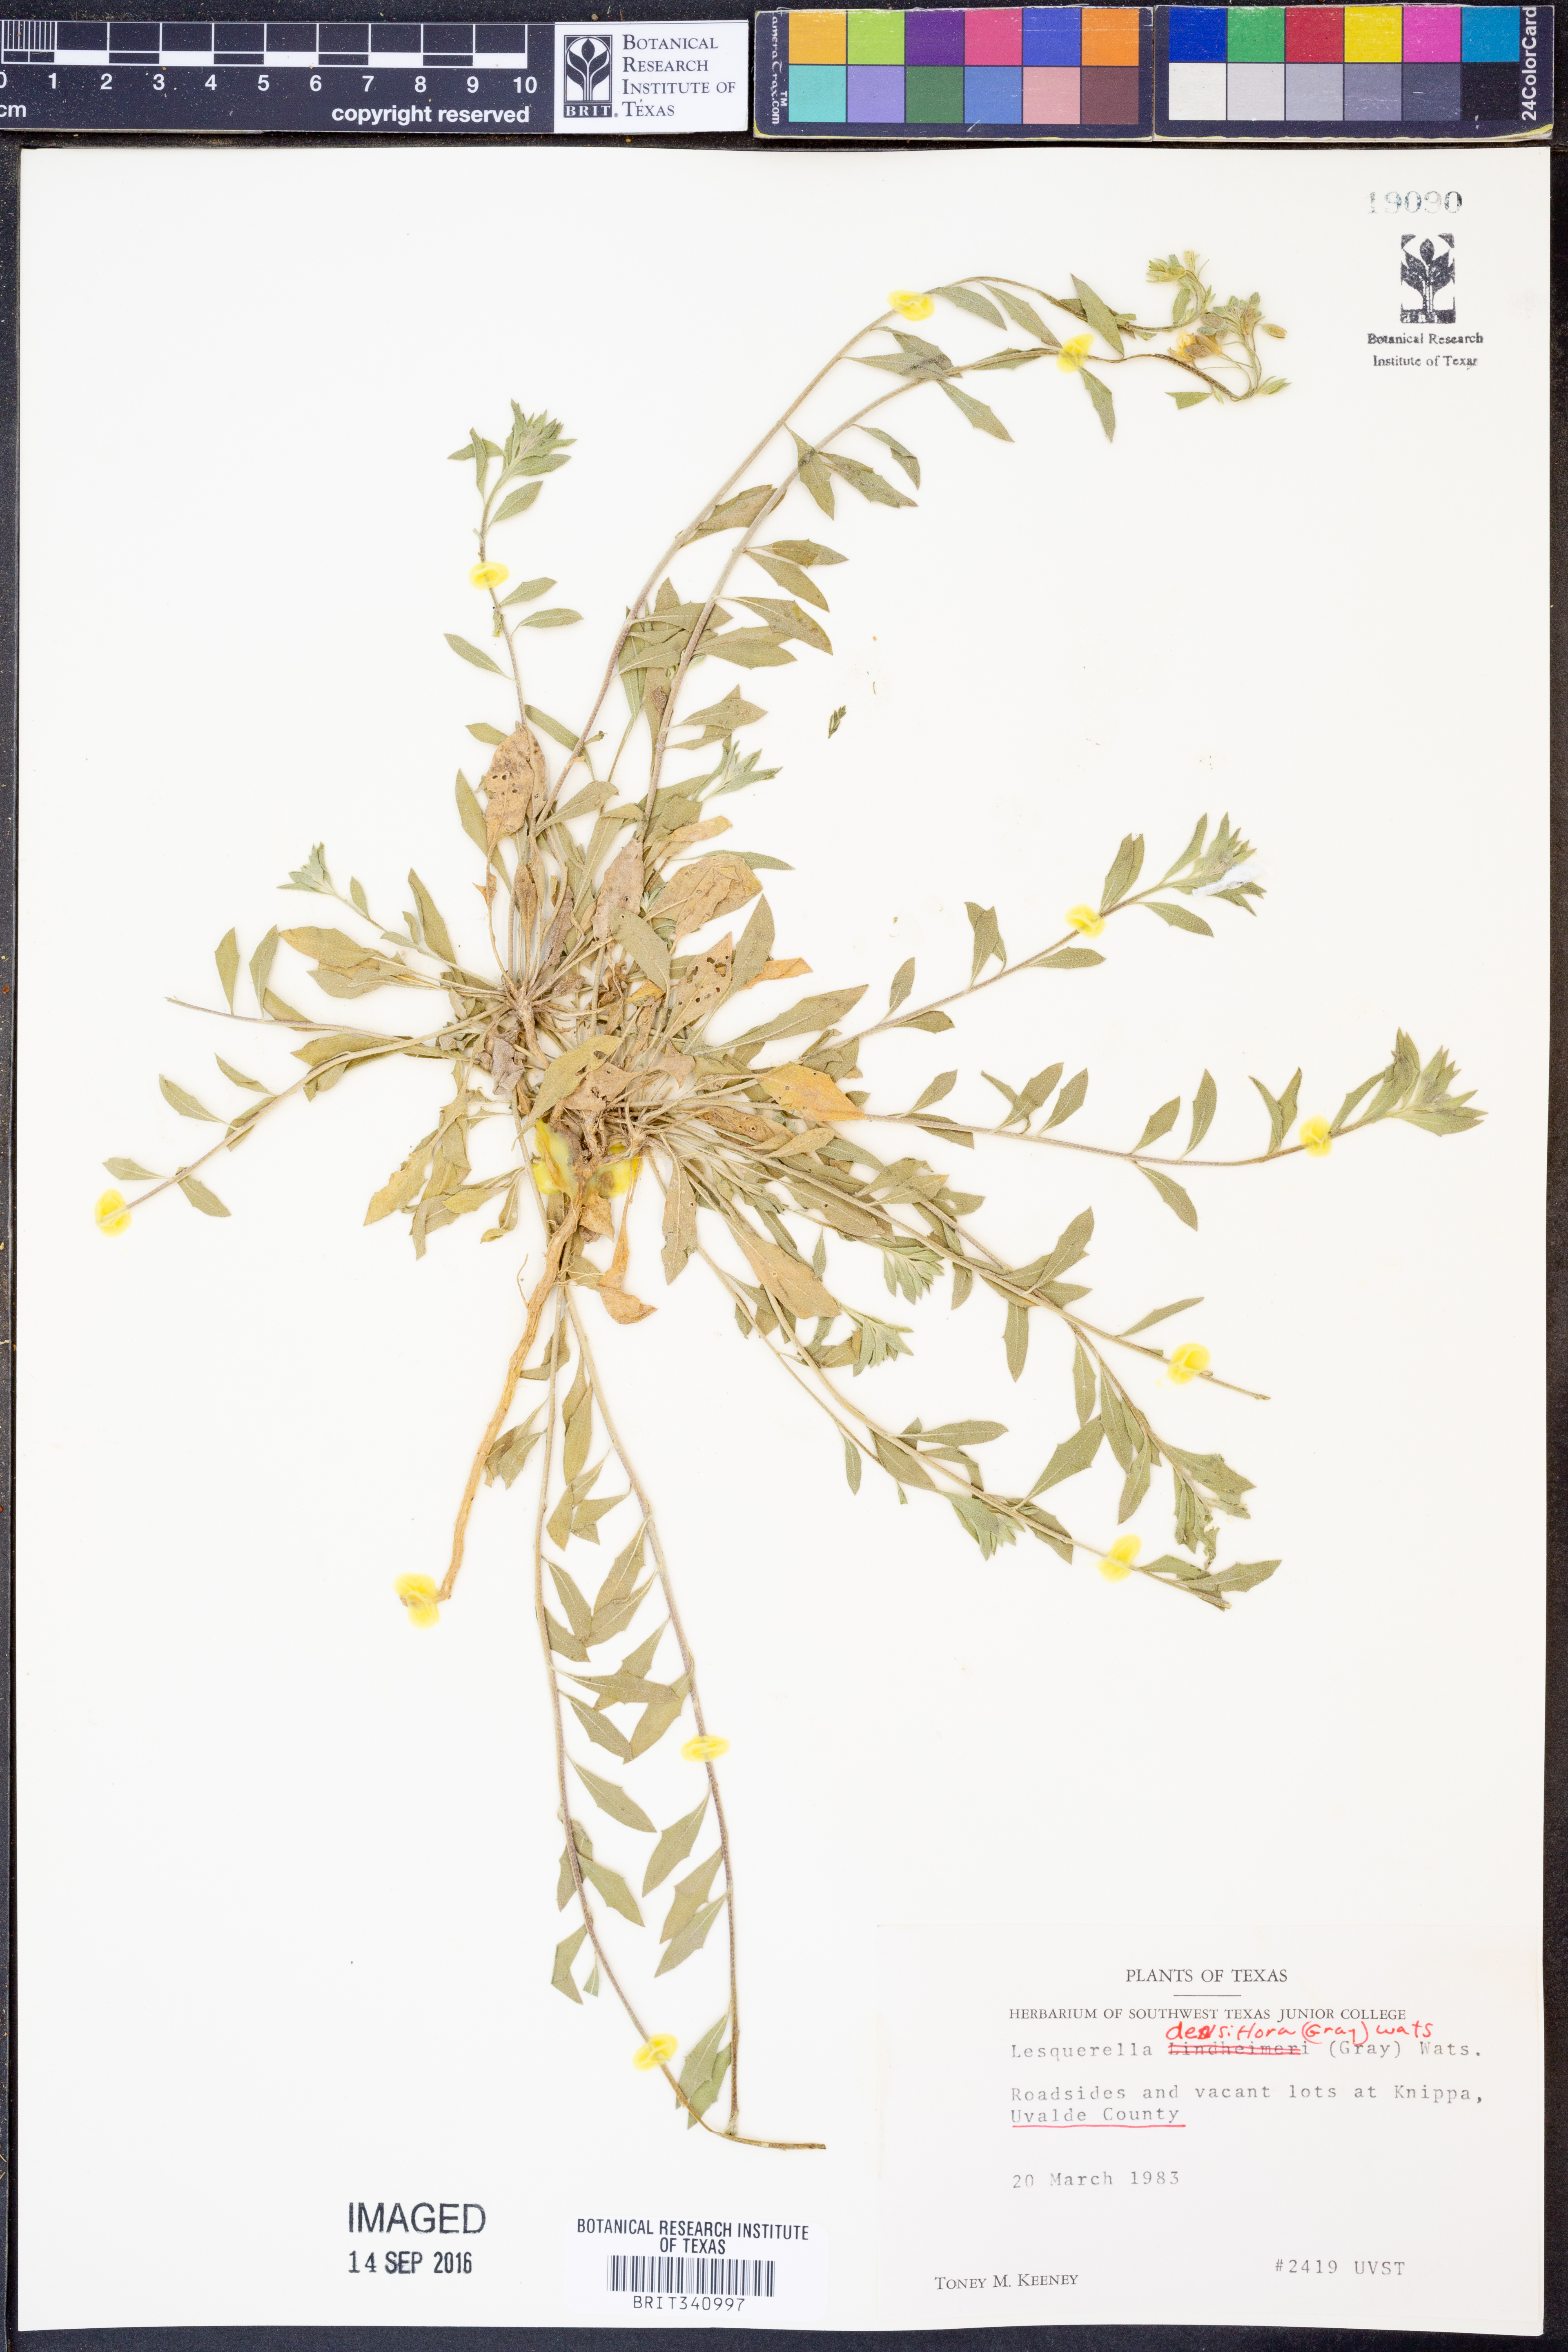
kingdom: Plantae
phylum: Tracheophyta
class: Magnoliopsida
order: Brassicales
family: Brassicaceae
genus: Physaria
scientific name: Physaria densiflora
